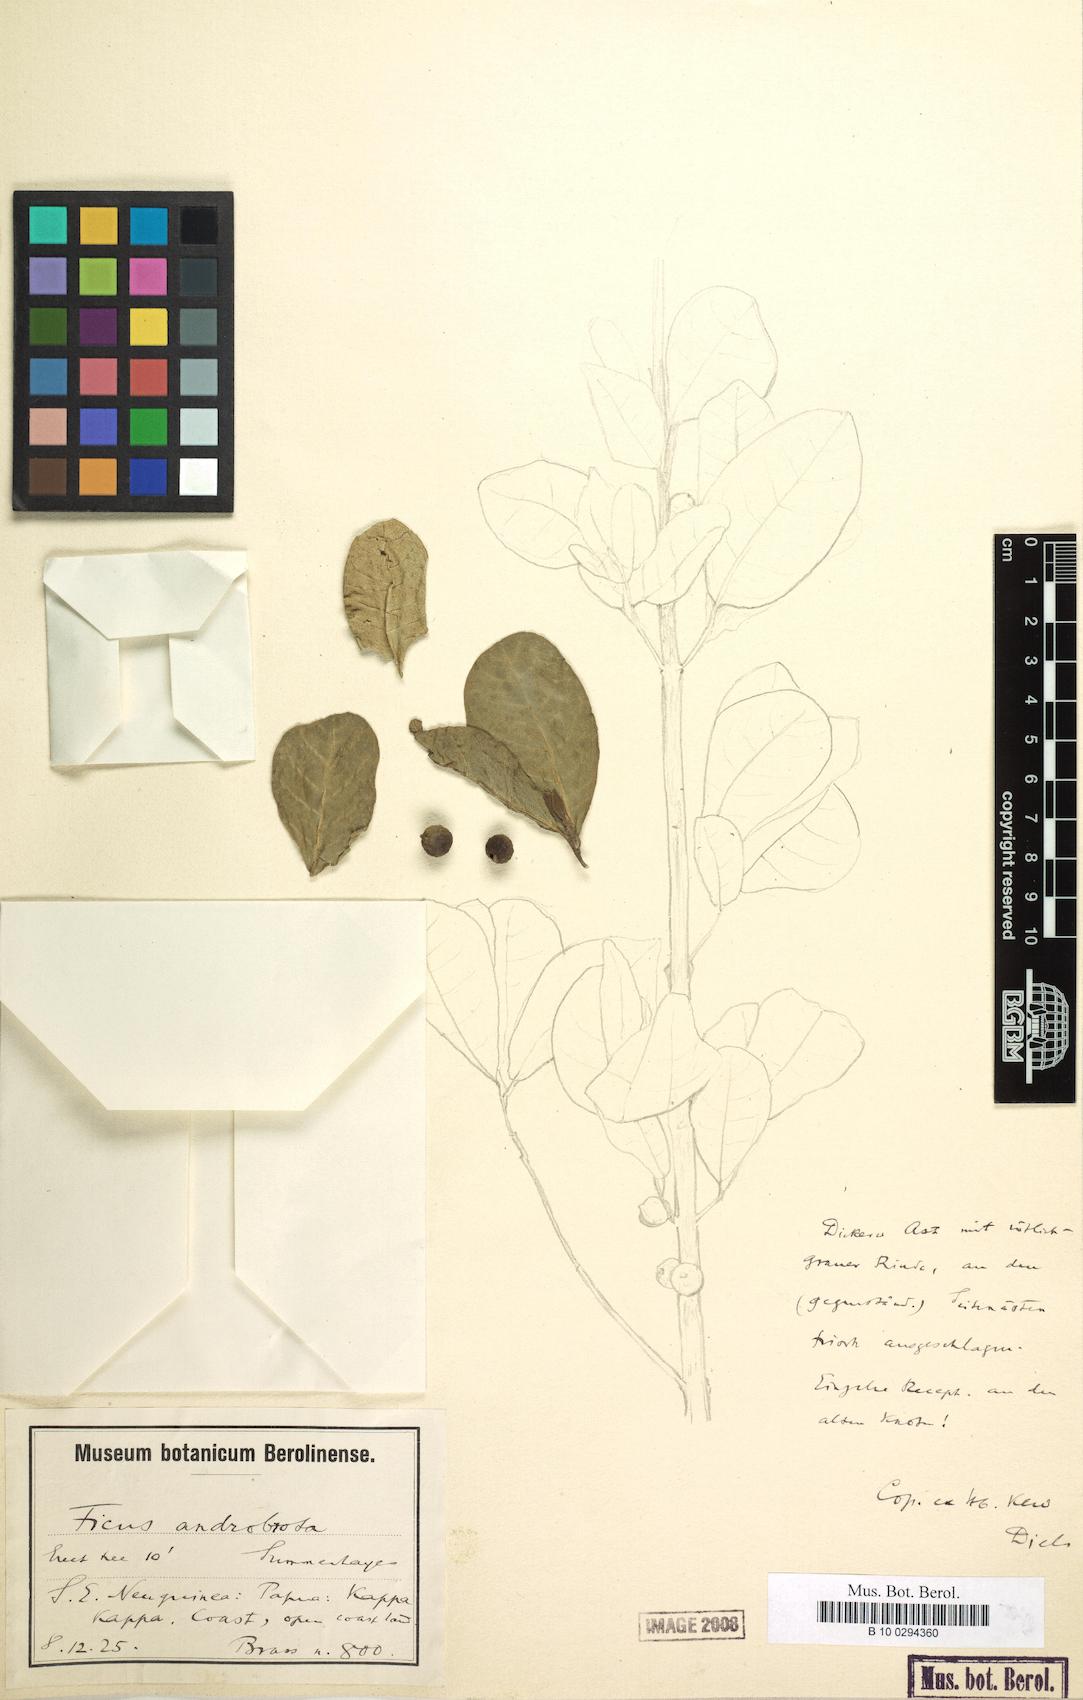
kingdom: Plantae
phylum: Tracheophyta
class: Magnoliopsida
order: Rosales
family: Moraceae
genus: Ficus
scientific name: Ficus opposita
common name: Figwood
